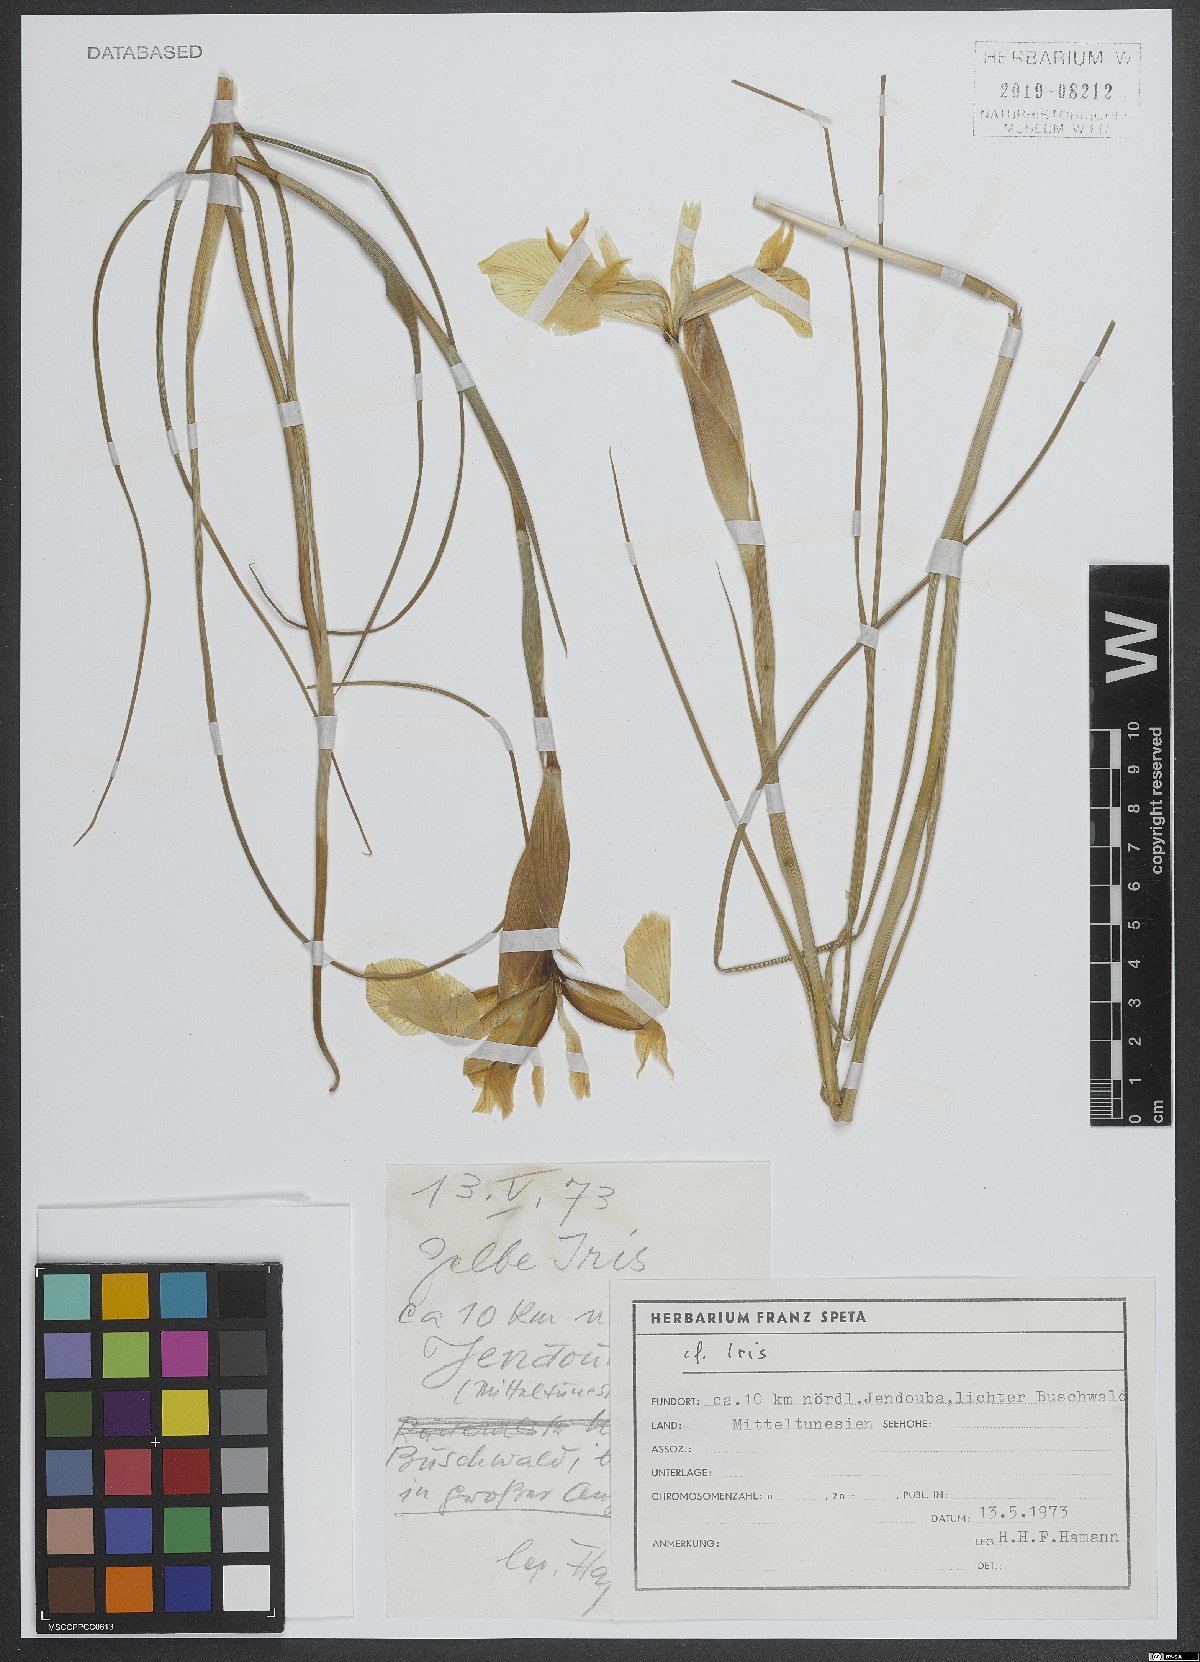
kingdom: Plantae
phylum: Tracheophyta
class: Liliopsida
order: Asparagales
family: Iridaceae
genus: Iris
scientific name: Iris
